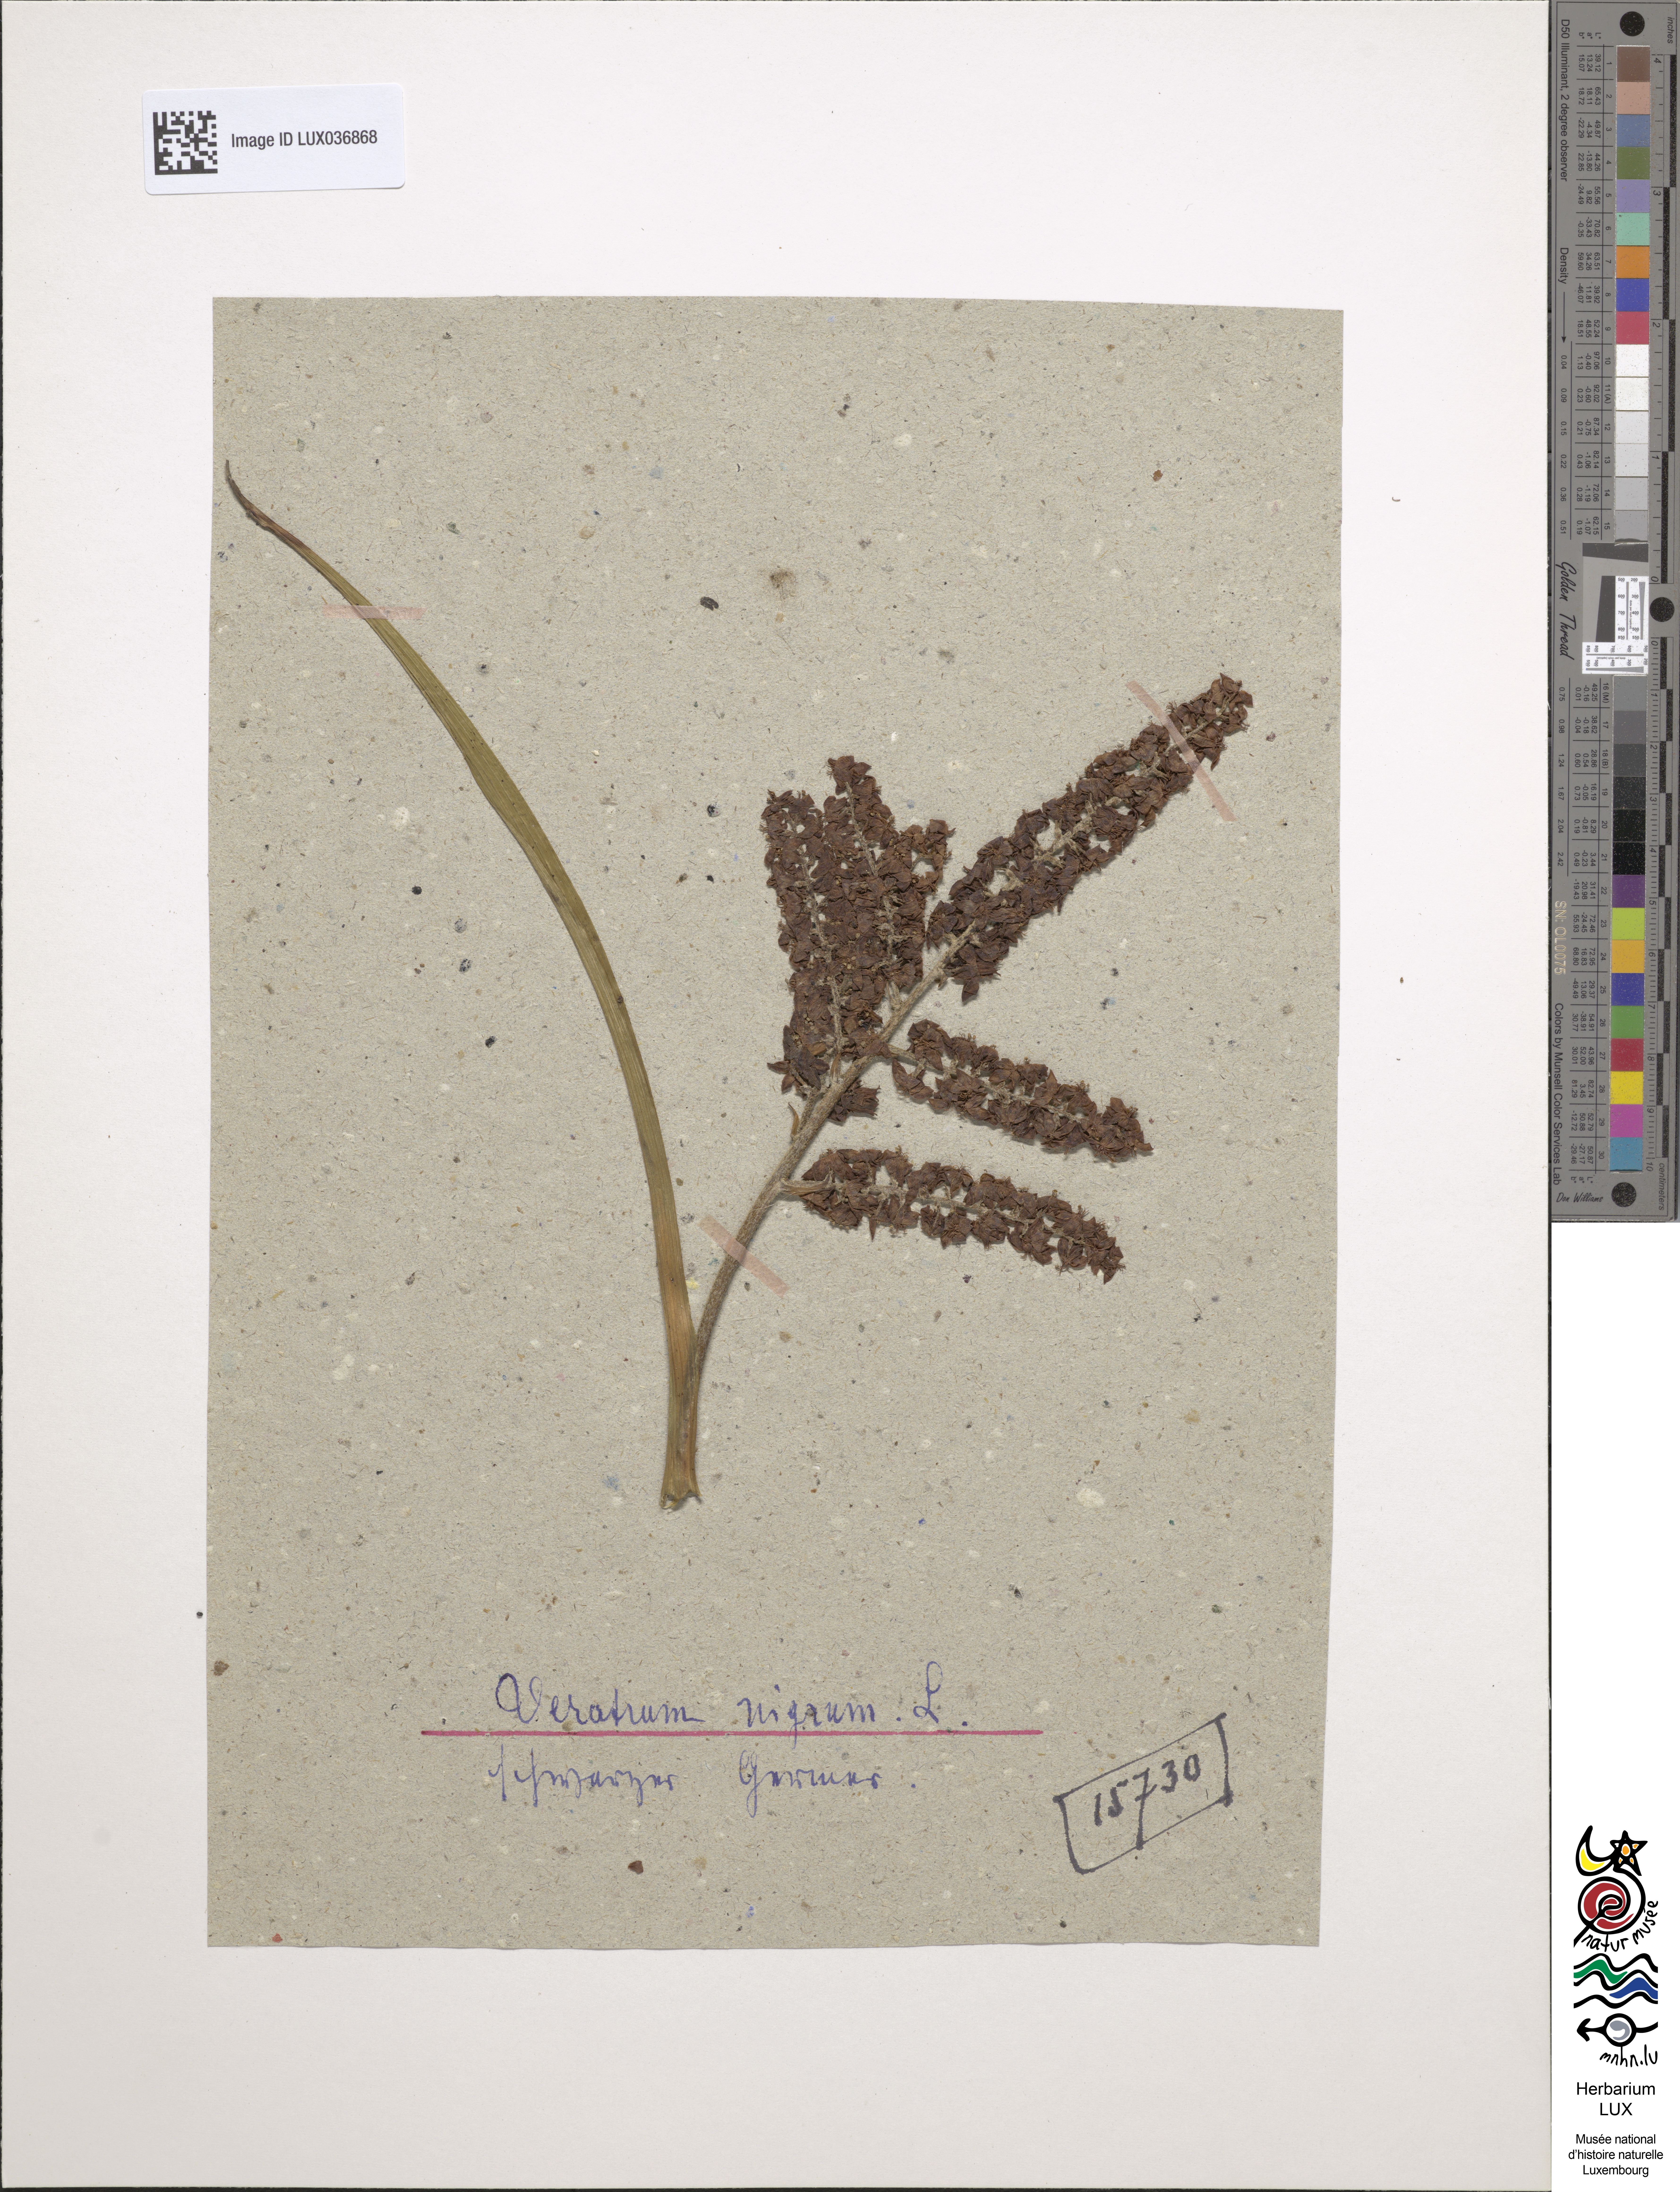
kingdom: Plantae
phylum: Tracheophyta
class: Liliopsida
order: Liliales
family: Melanthiaceae
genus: Veratrum
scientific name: Veratrum nigrum
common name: Black veratrum
